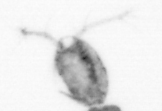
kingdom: Animalia
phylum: Arthropoda
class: Copepoda
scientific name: Copepoda
